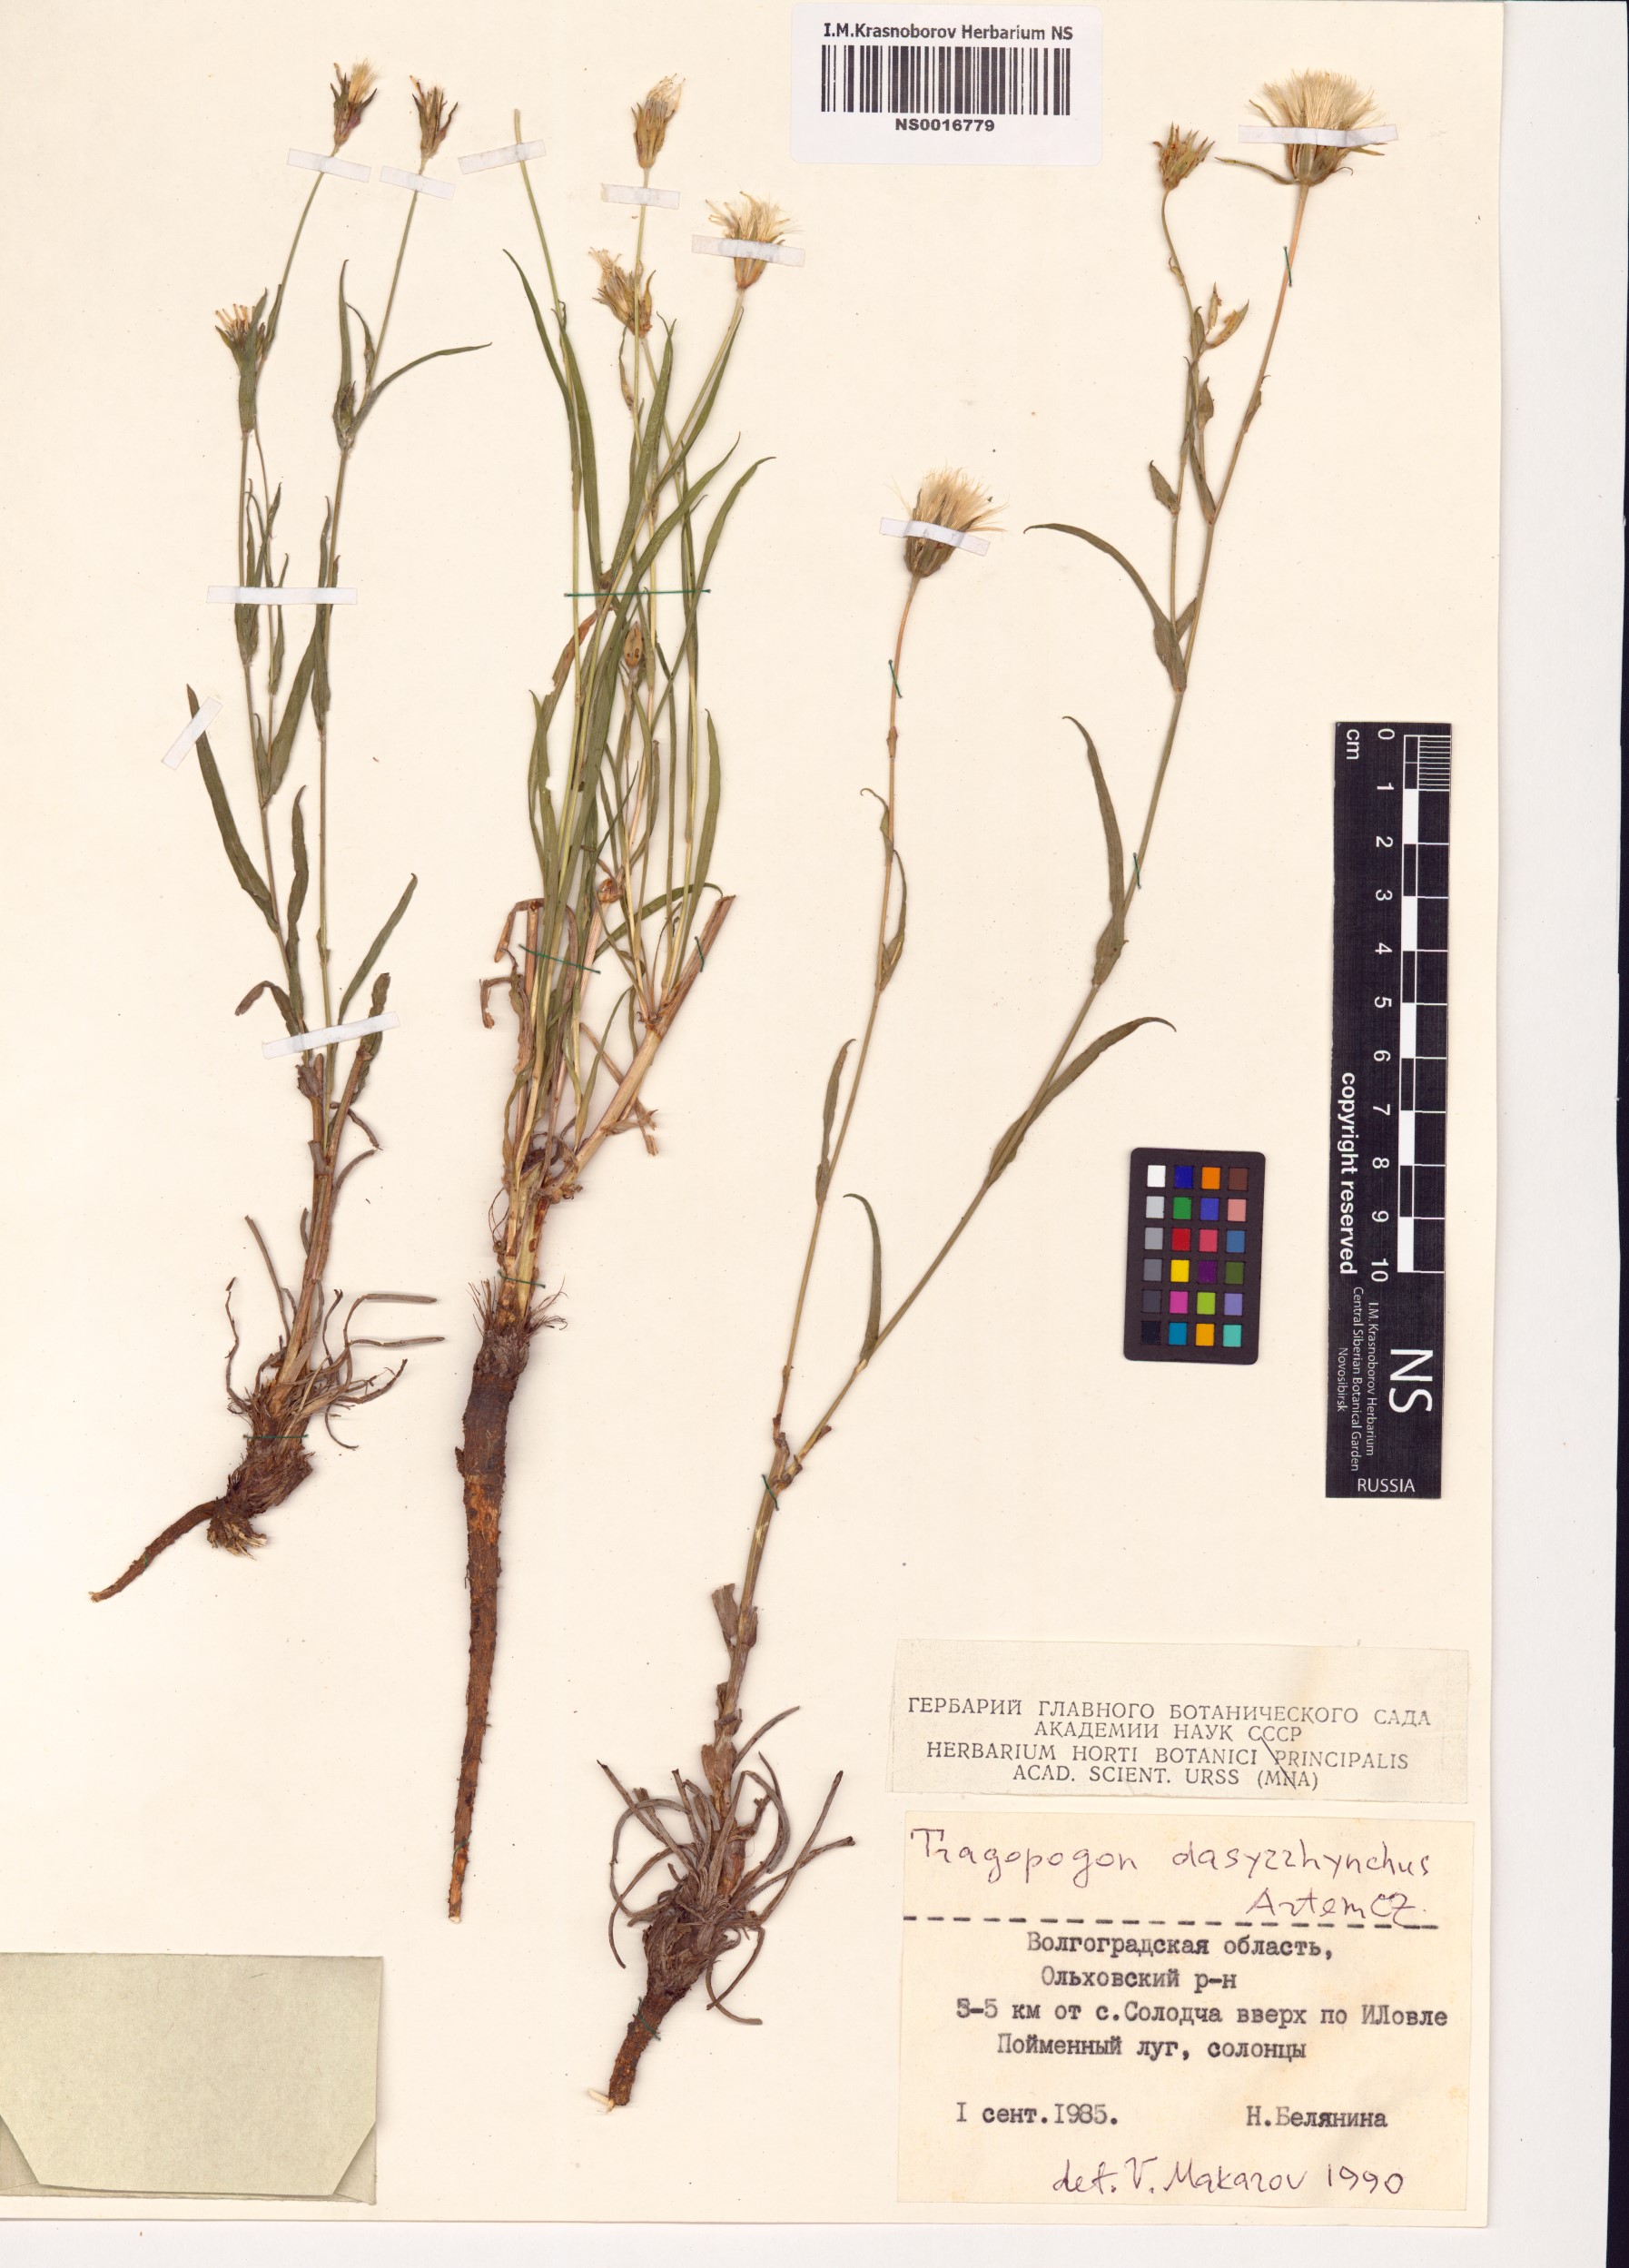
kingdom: Plantae
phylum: Tracheophyta
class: Magnoliopsida
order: Asterales
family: Asteraceae
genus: Tragopogon
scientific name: Tragopogon dasyrhynchus
